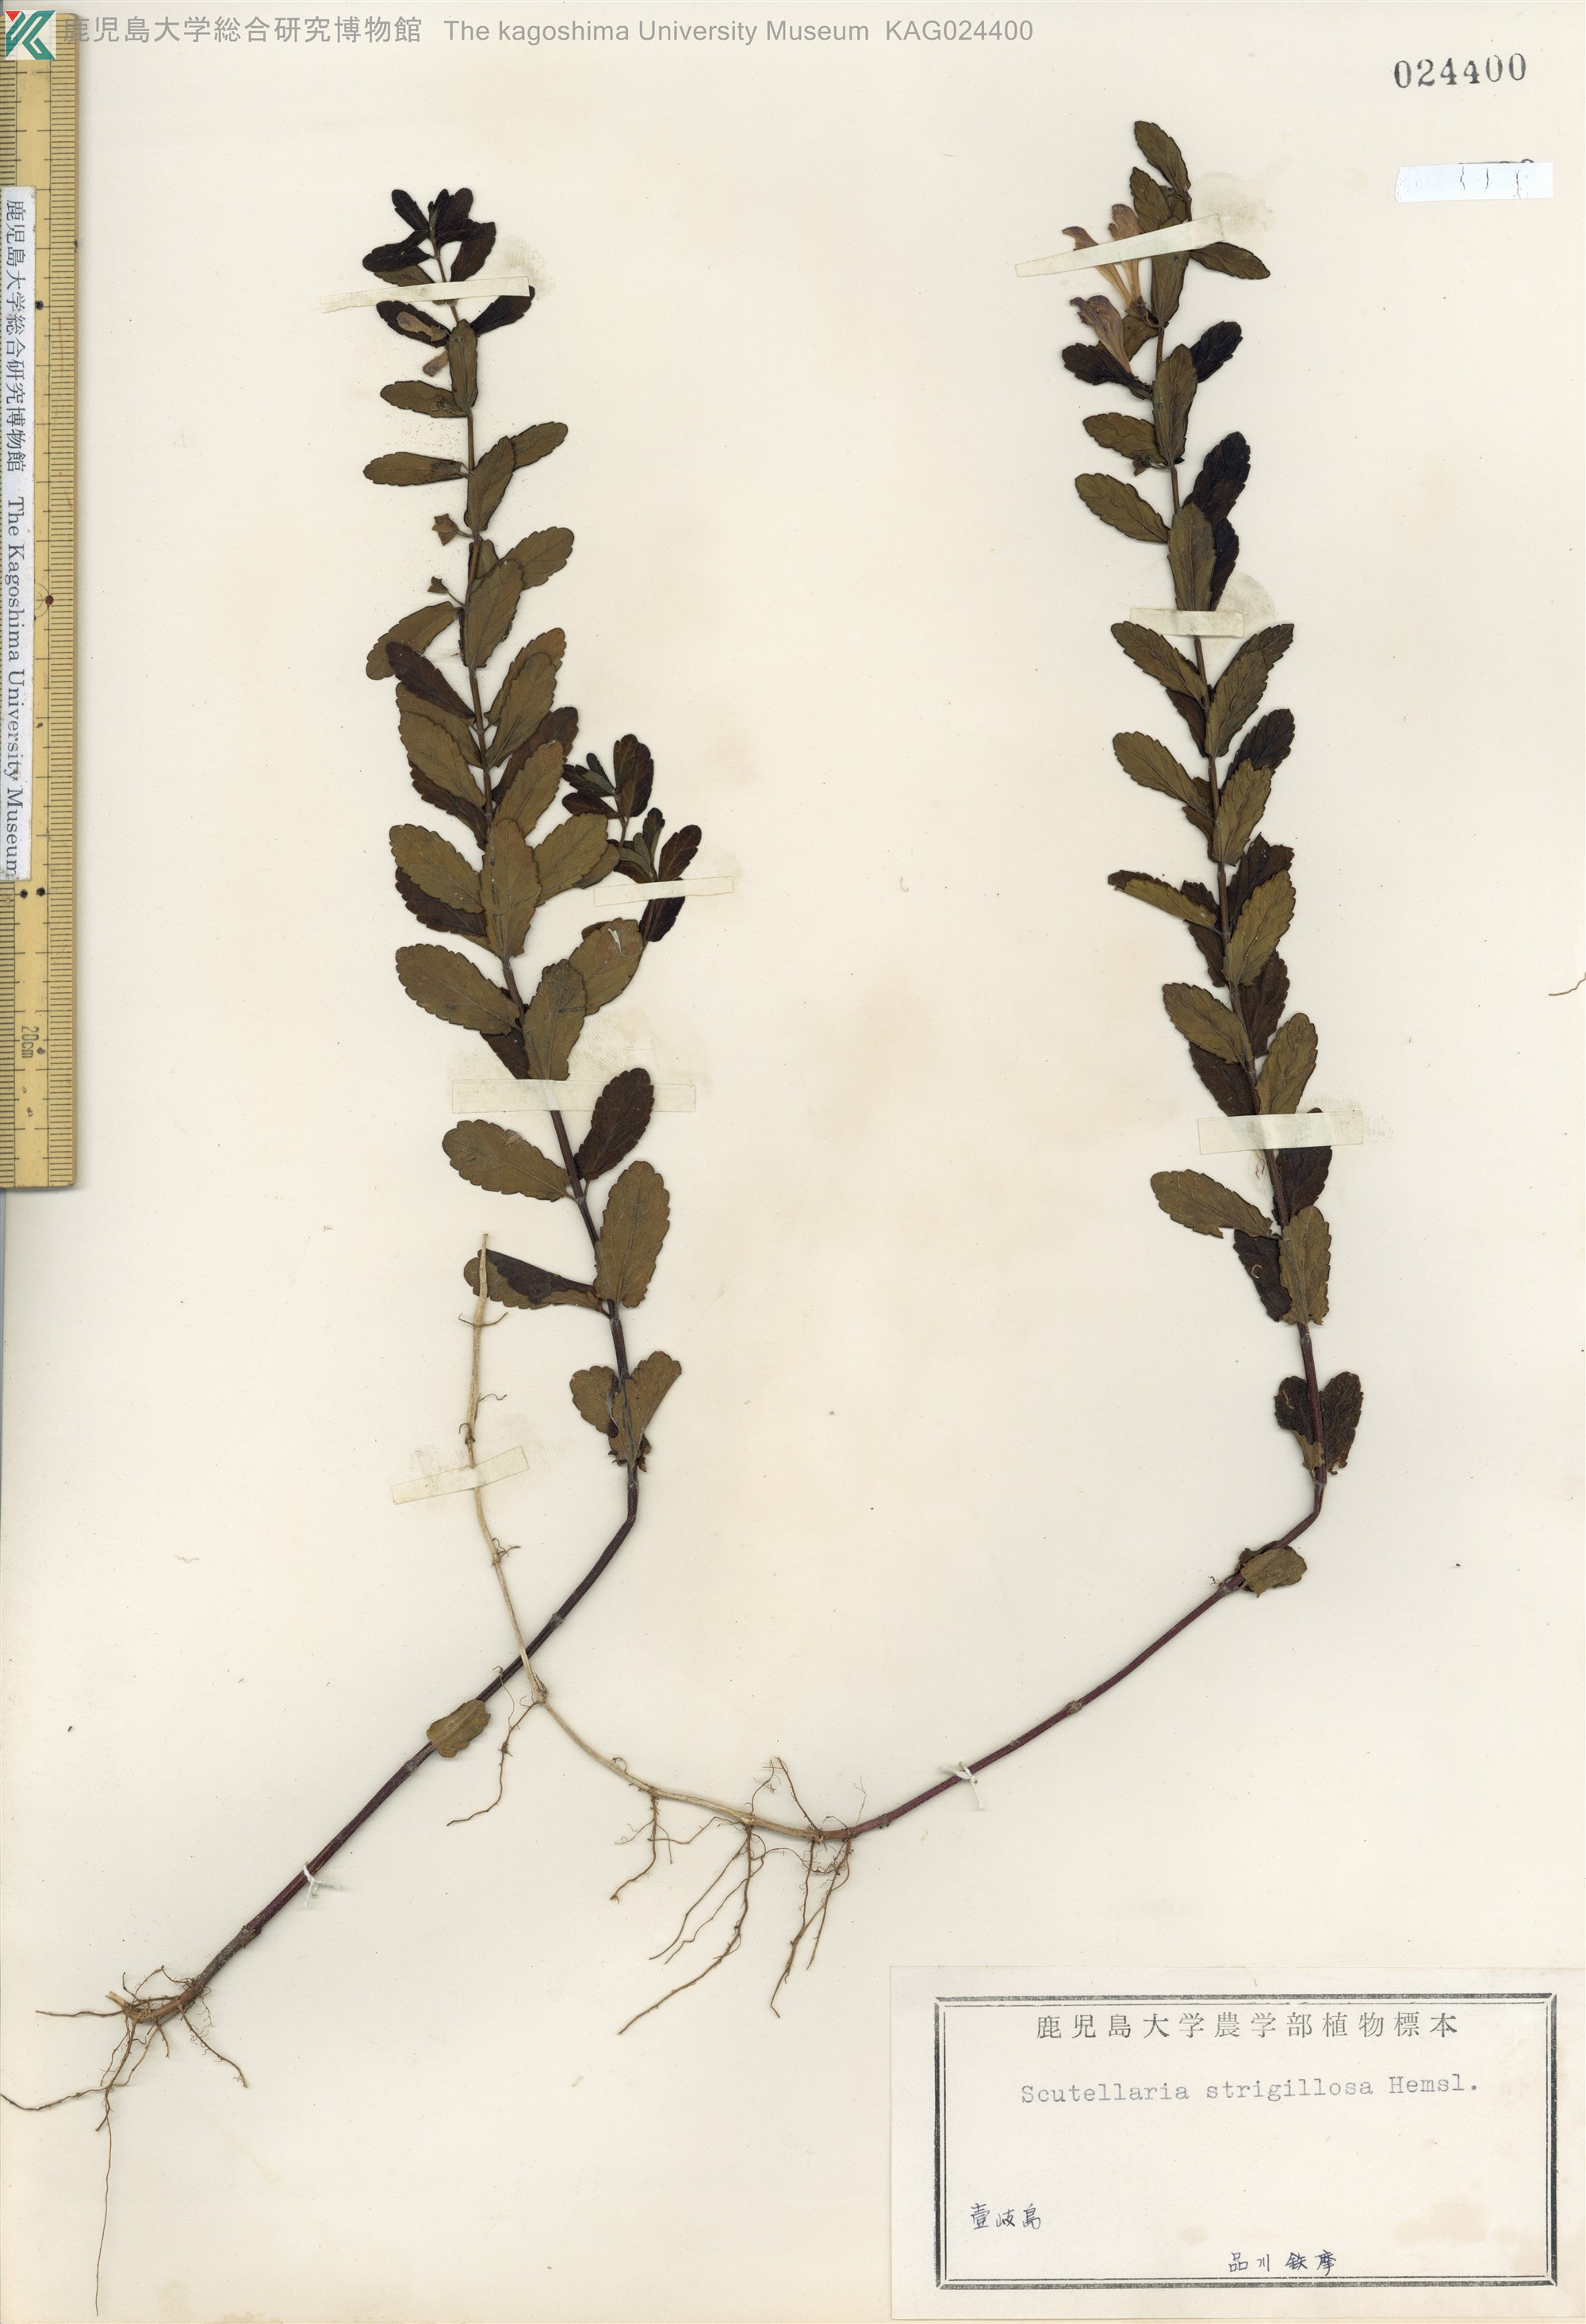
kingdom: Plantae
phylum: Tracheophyta
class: Magnoliopsida
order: Lamiales
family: Lamiaceae
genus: Scutellaria
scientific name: Scutellaria strigillosa
